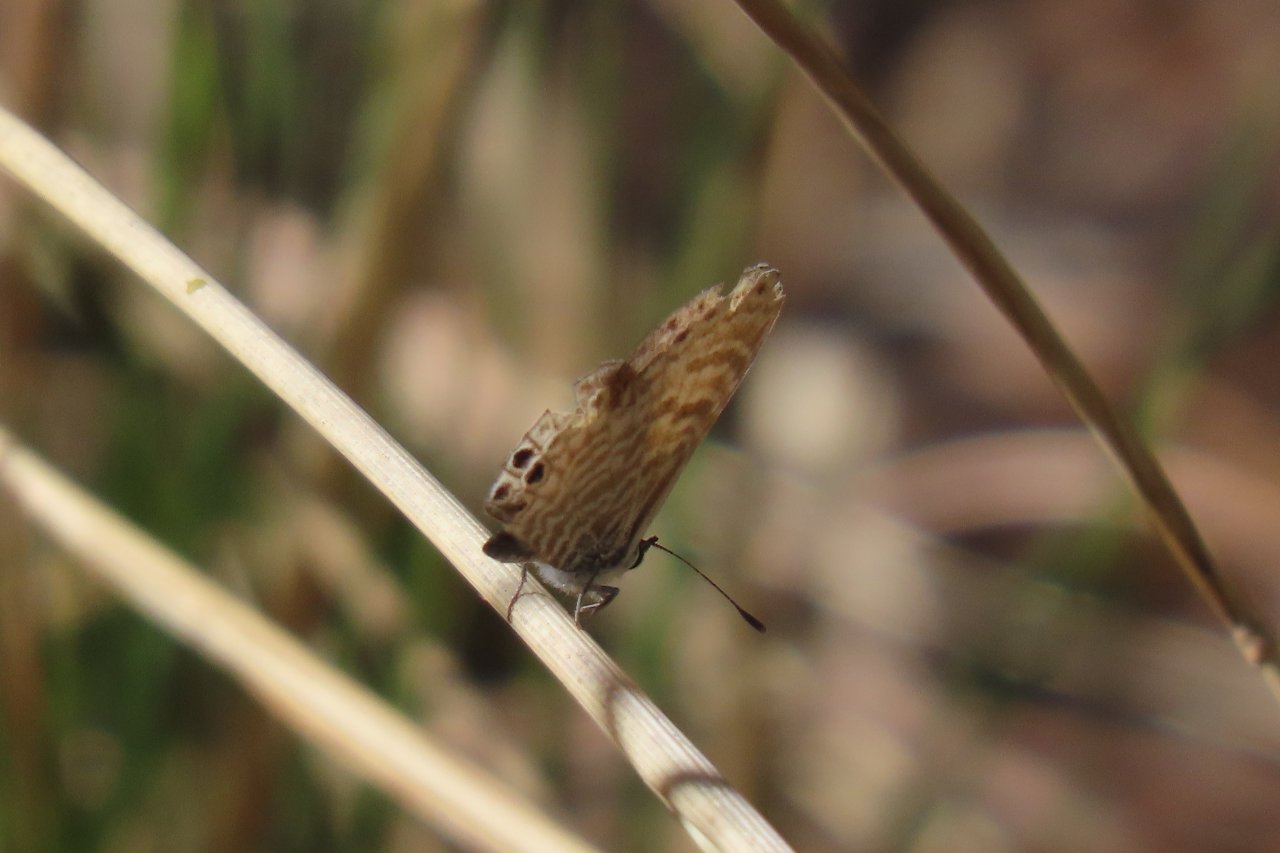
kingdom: Animalia
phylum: Arthropoda
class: Insecta
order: Lepidoptera
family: Lycaenidae
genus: Leptotes
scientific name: Leptotes marina
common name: Marine Blue
